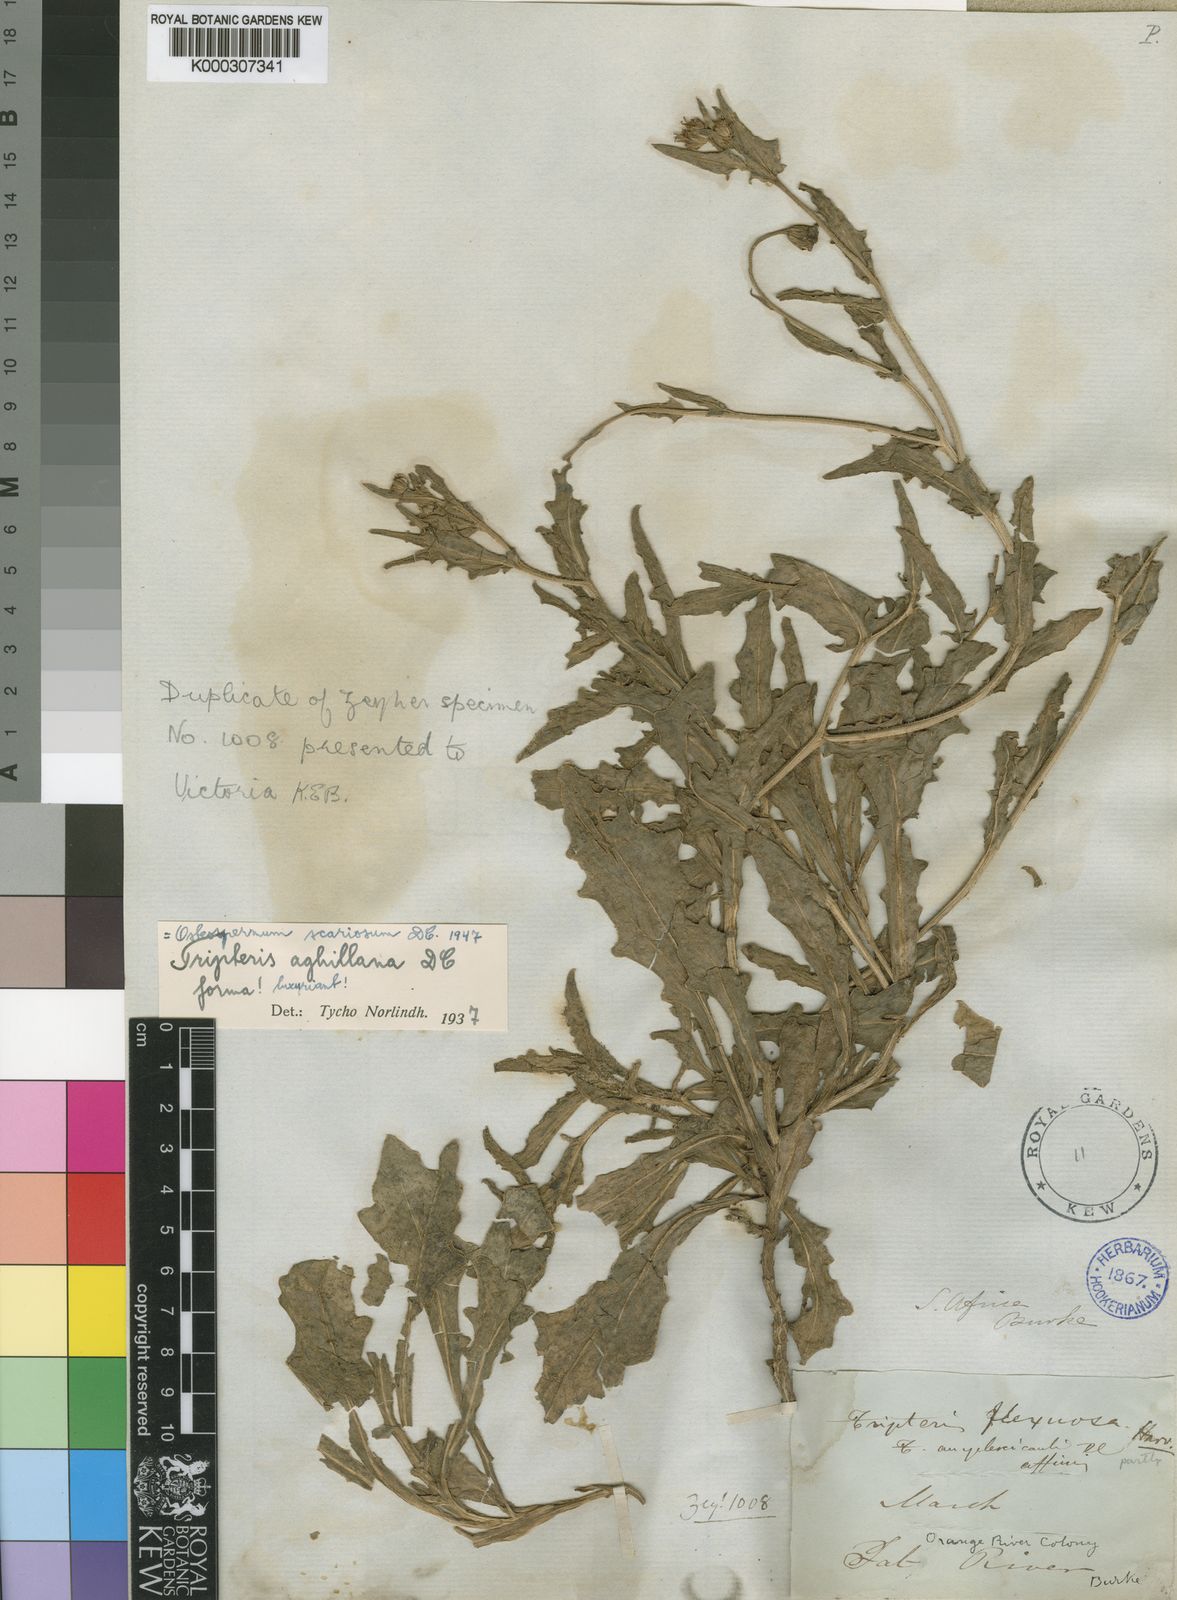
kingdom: Plantae
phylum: Tracheophyta
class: Magnoliopsida
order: Asterales
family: Asteraceae
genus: Osteospermum
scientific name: Osteospermum scariosum
